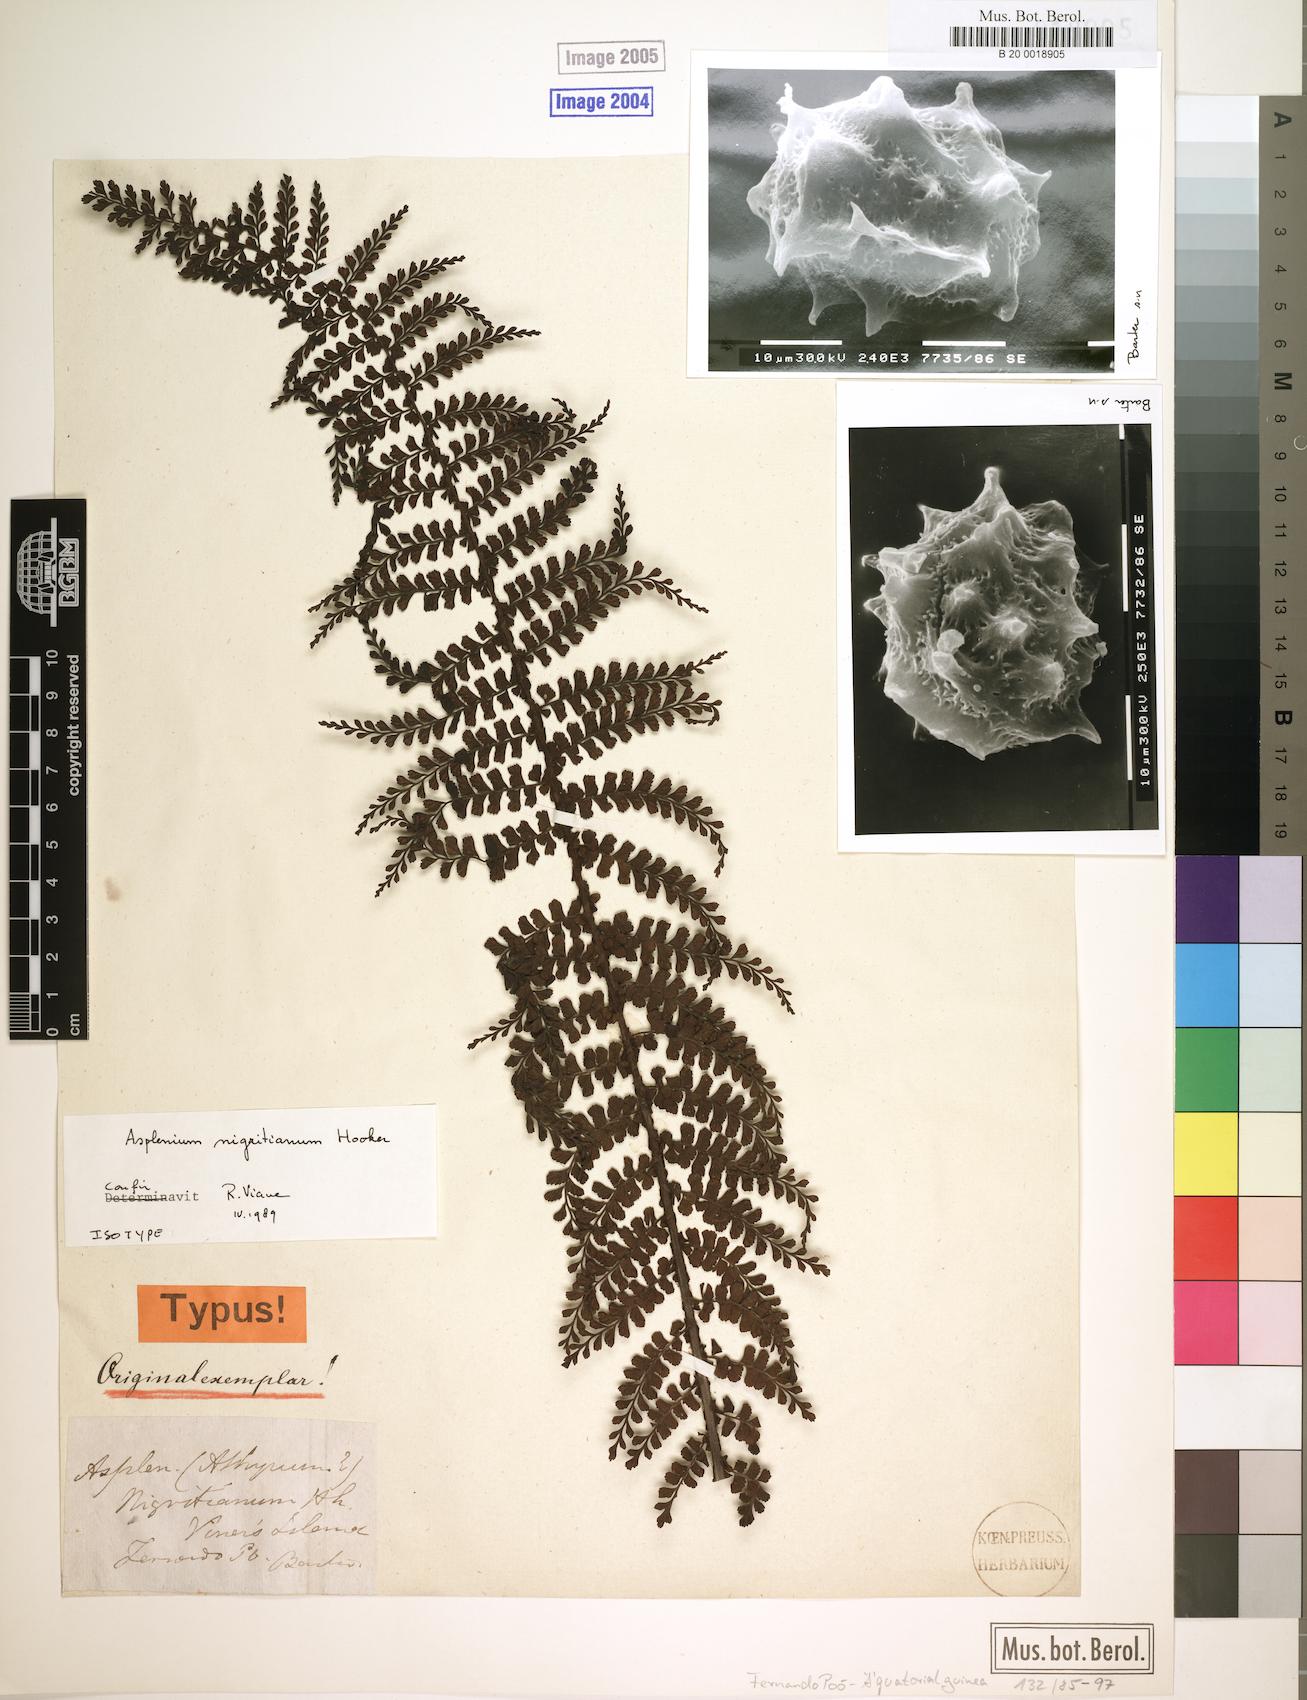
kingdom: Plantae
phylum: Tracheophyta
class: Polypodiopsida
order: Polypodiales
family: Aspleniaceae
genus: Asplenium
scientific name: Asplenium nigritianum
